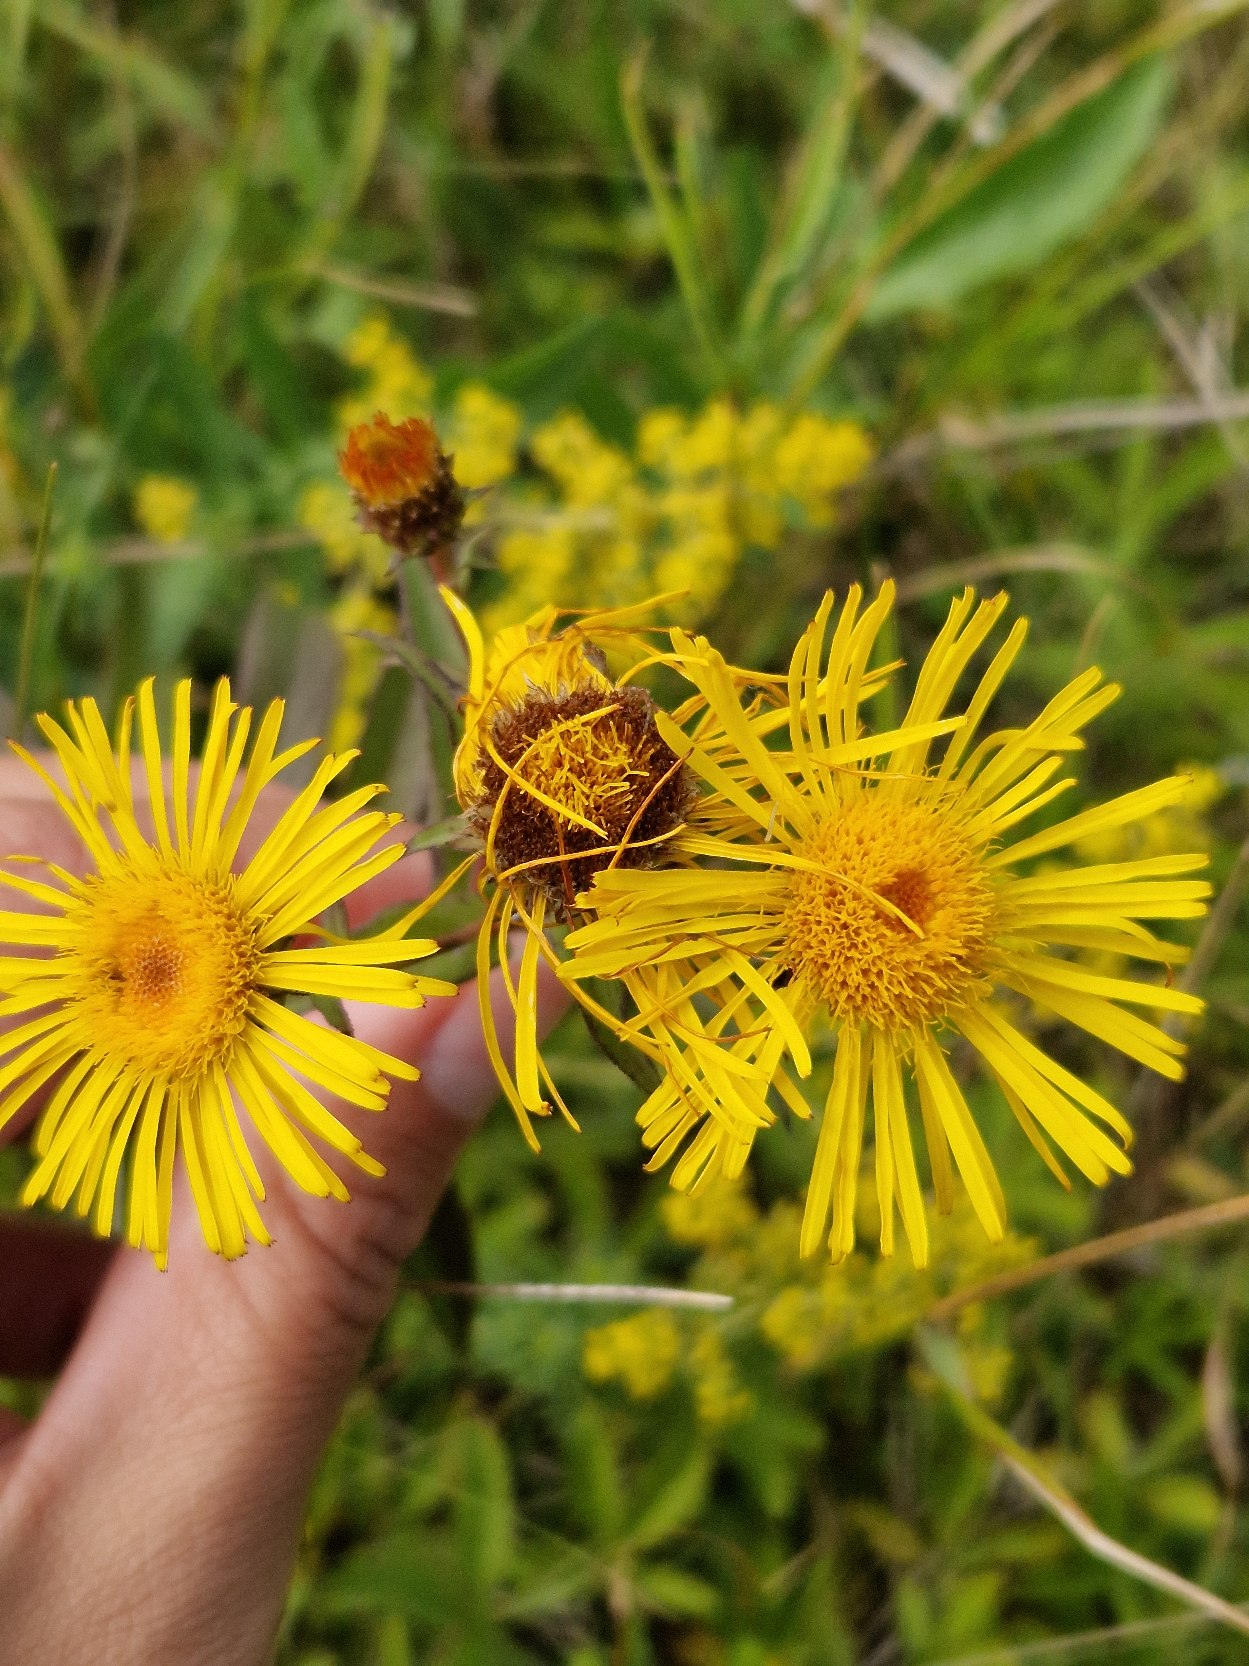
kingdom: Plantae
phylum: Tracheophyta
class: Magnoliopsida
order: Asterales
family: Asteraceae
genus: Pentanema
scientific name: Pentanema salicinum
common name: Pile-alant
